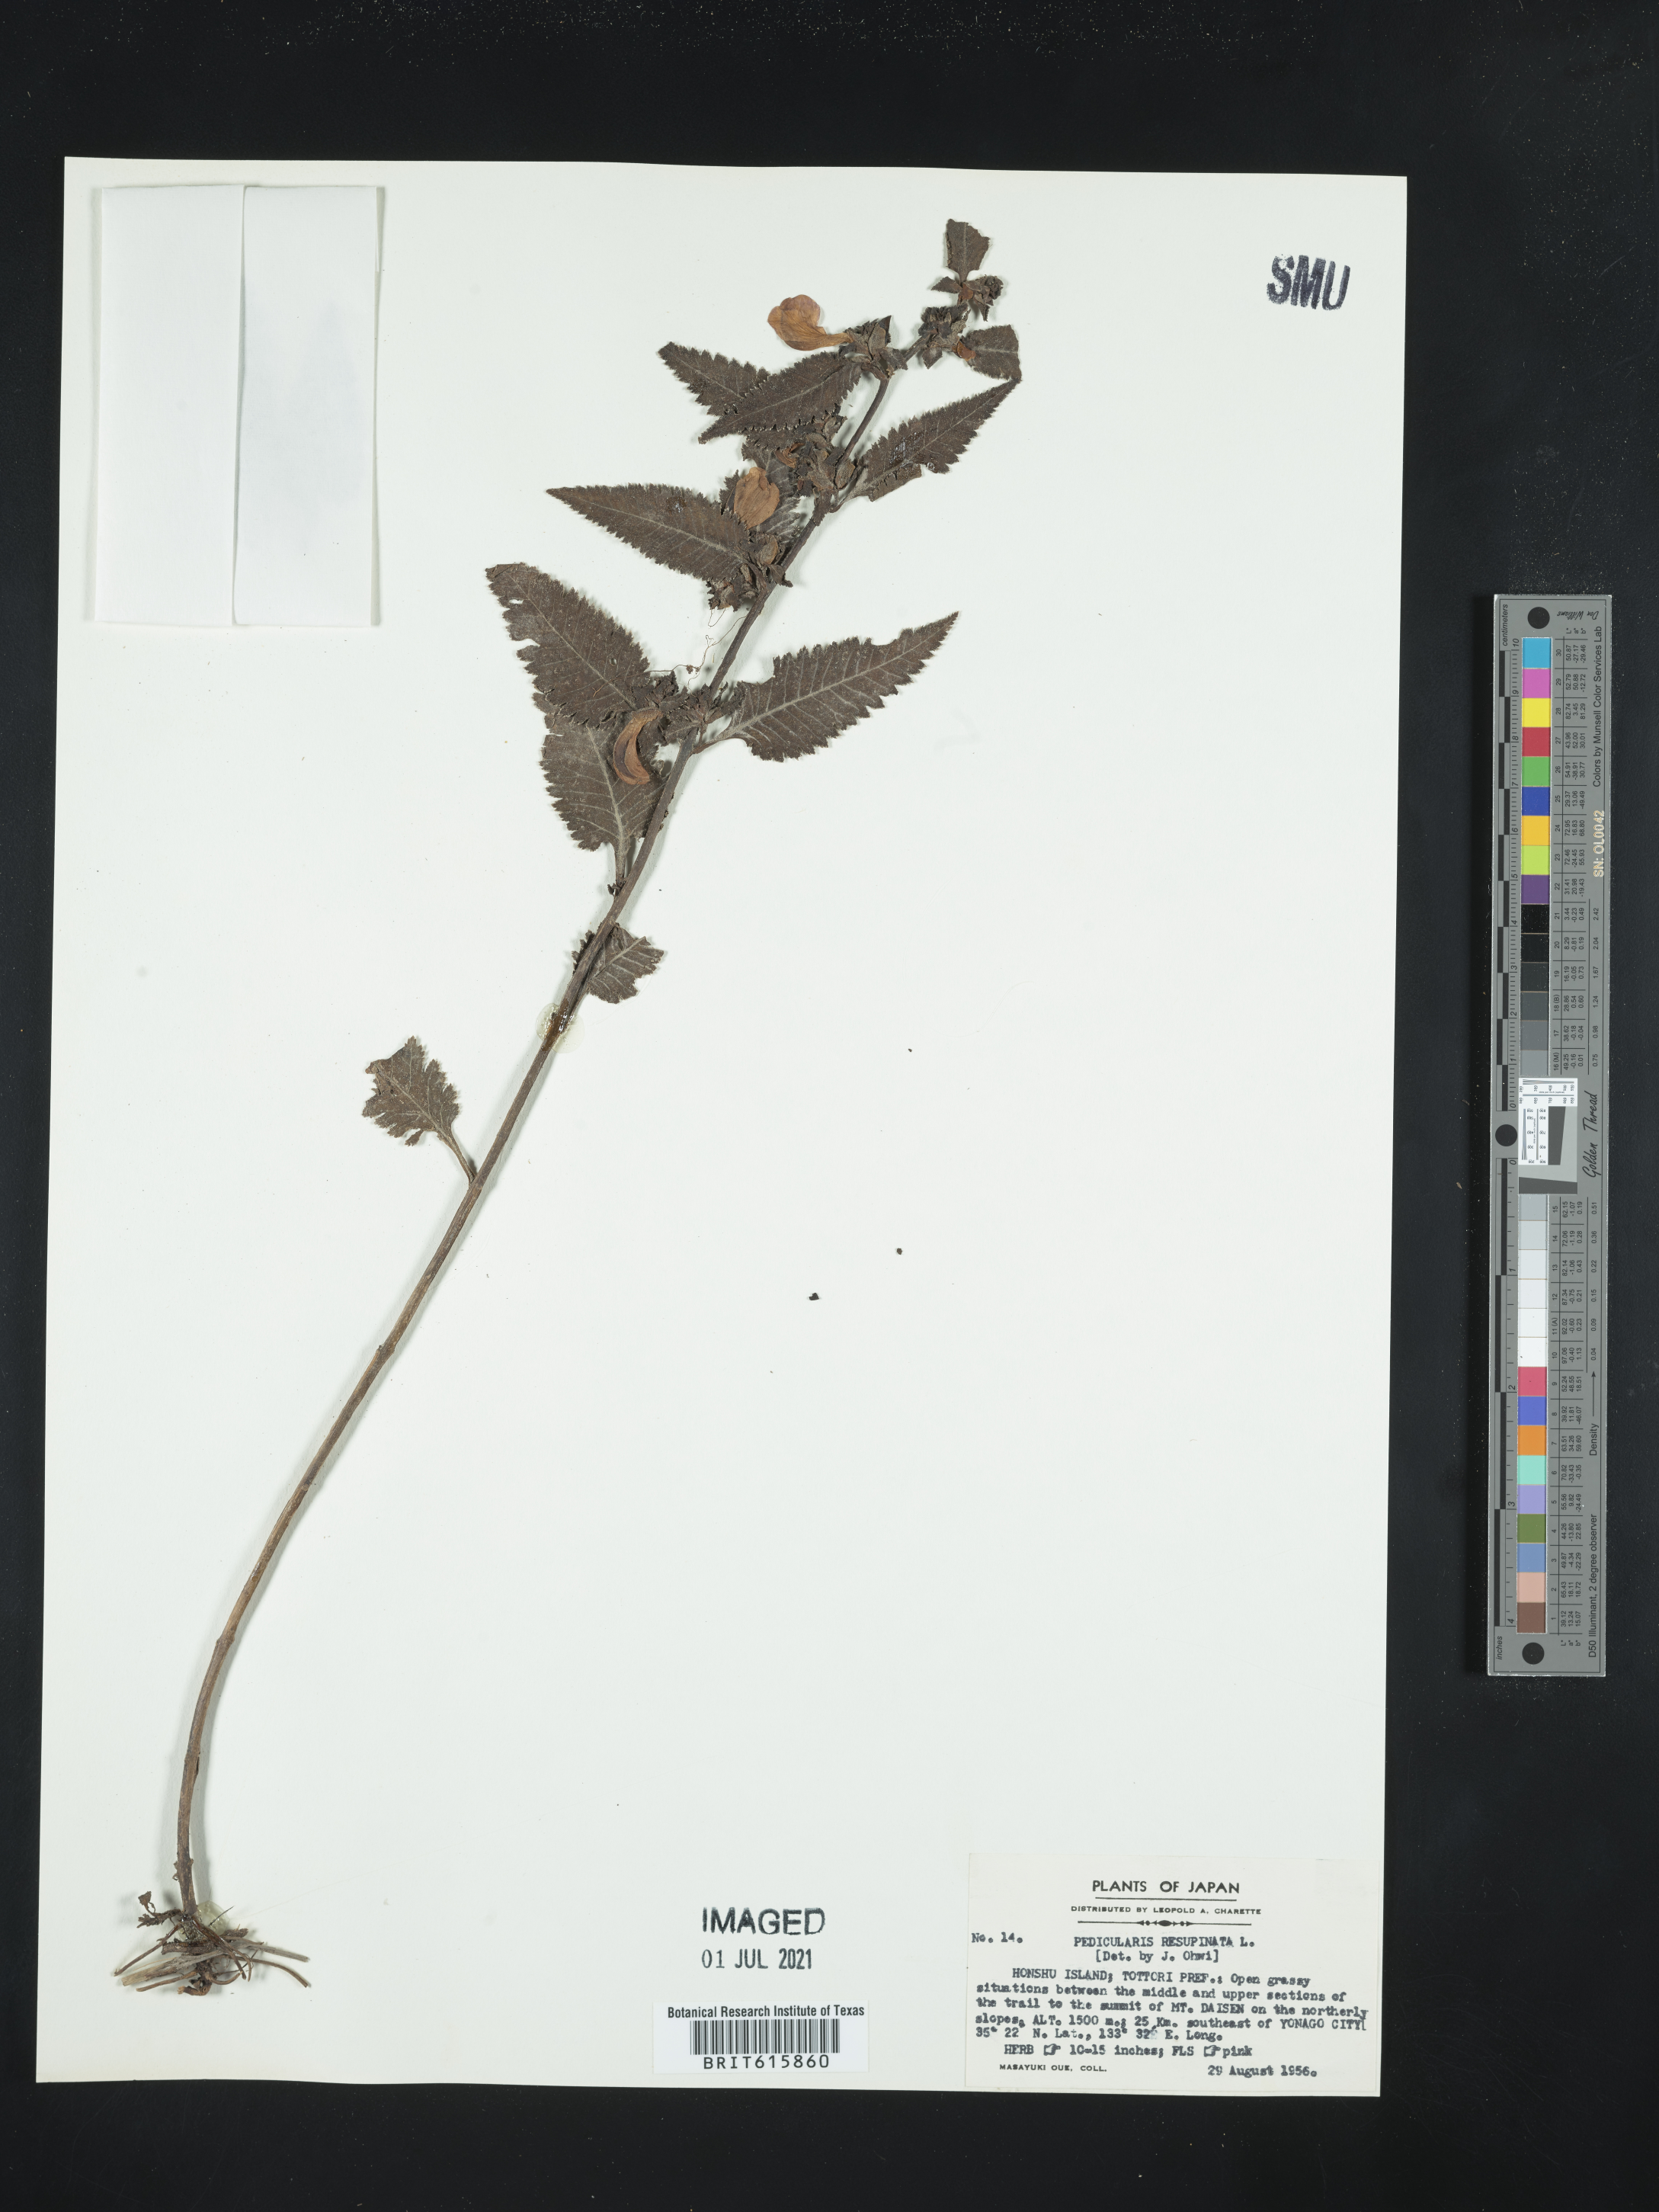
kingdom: Plantae
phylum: Tracheophyta
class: Magnoliopsida
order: Lamiales
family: Orobanchaceae
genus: Pedicularis
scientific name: Pedicularis resupinata
